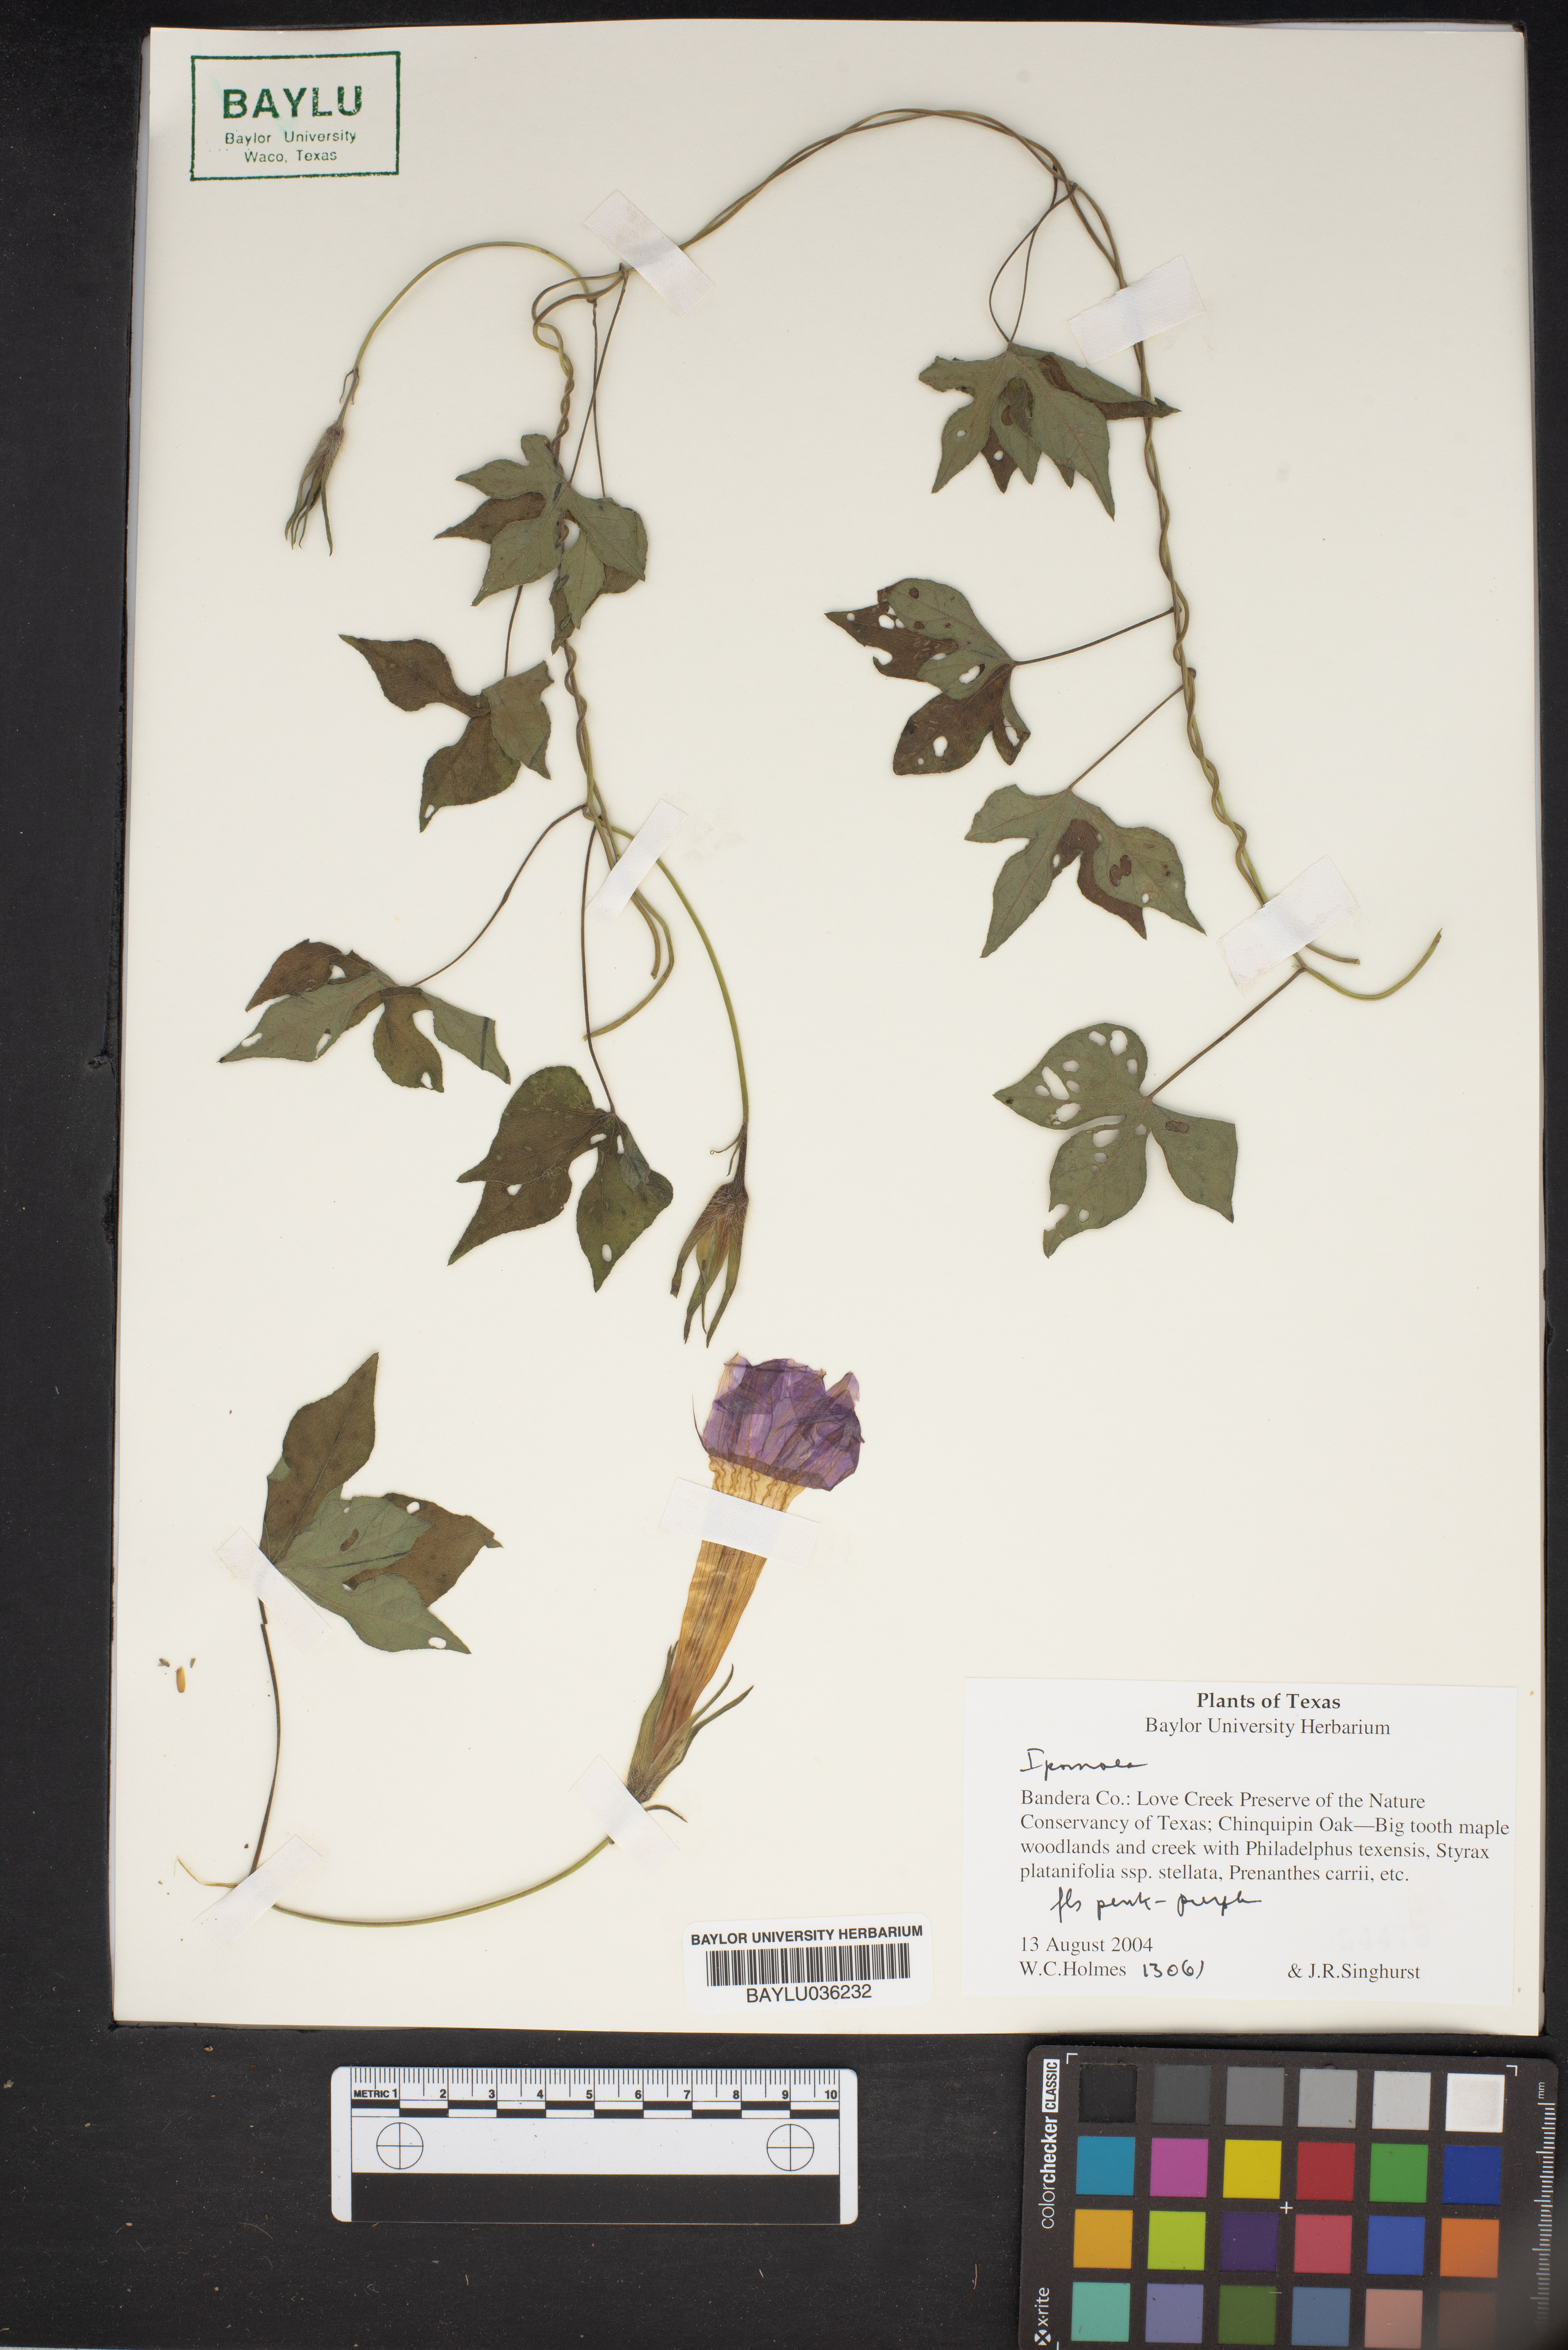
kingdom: Plantae
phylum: Tracheophyta
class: Magnoliopsida
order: Solanales
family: Convolvulaceae
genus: Ipomoea
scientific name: Ipomoea
